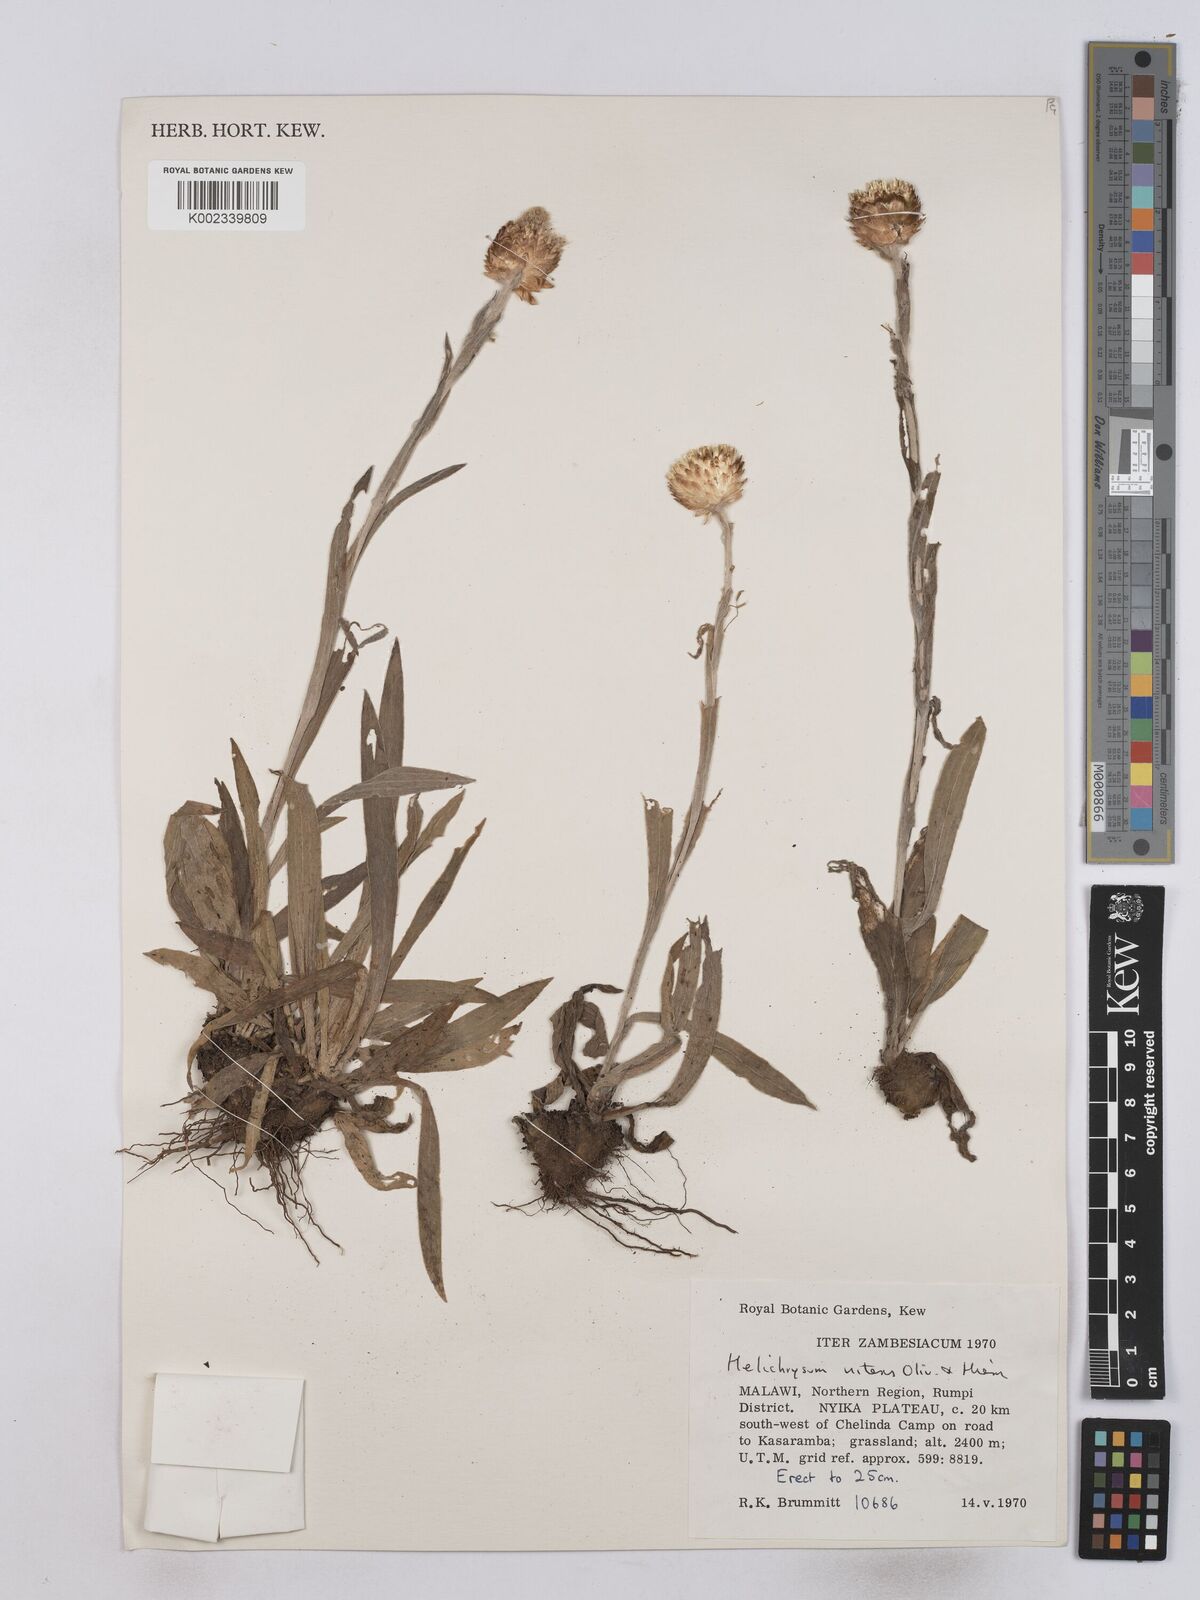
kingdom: Plantae
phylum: Tracheophyta
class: Magnoliopsida
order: Asterales
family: Asteraceae
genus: Helichrysum
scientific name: Helichrysum nitens
